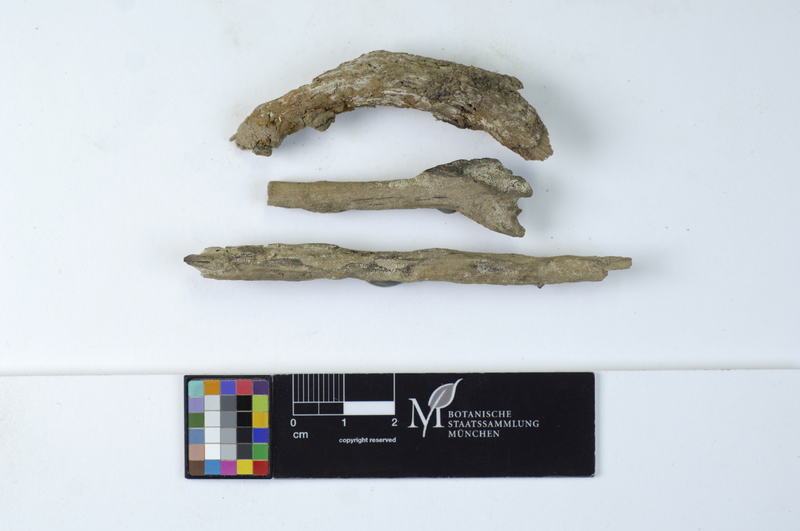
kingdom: Fungi
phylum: Basidiomycota
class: Agaricomycetes
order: Polyporales
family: Meruliaceae
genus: Bulbillomyces
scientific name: Bulbillomyces farinosus
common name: Couscous crust
